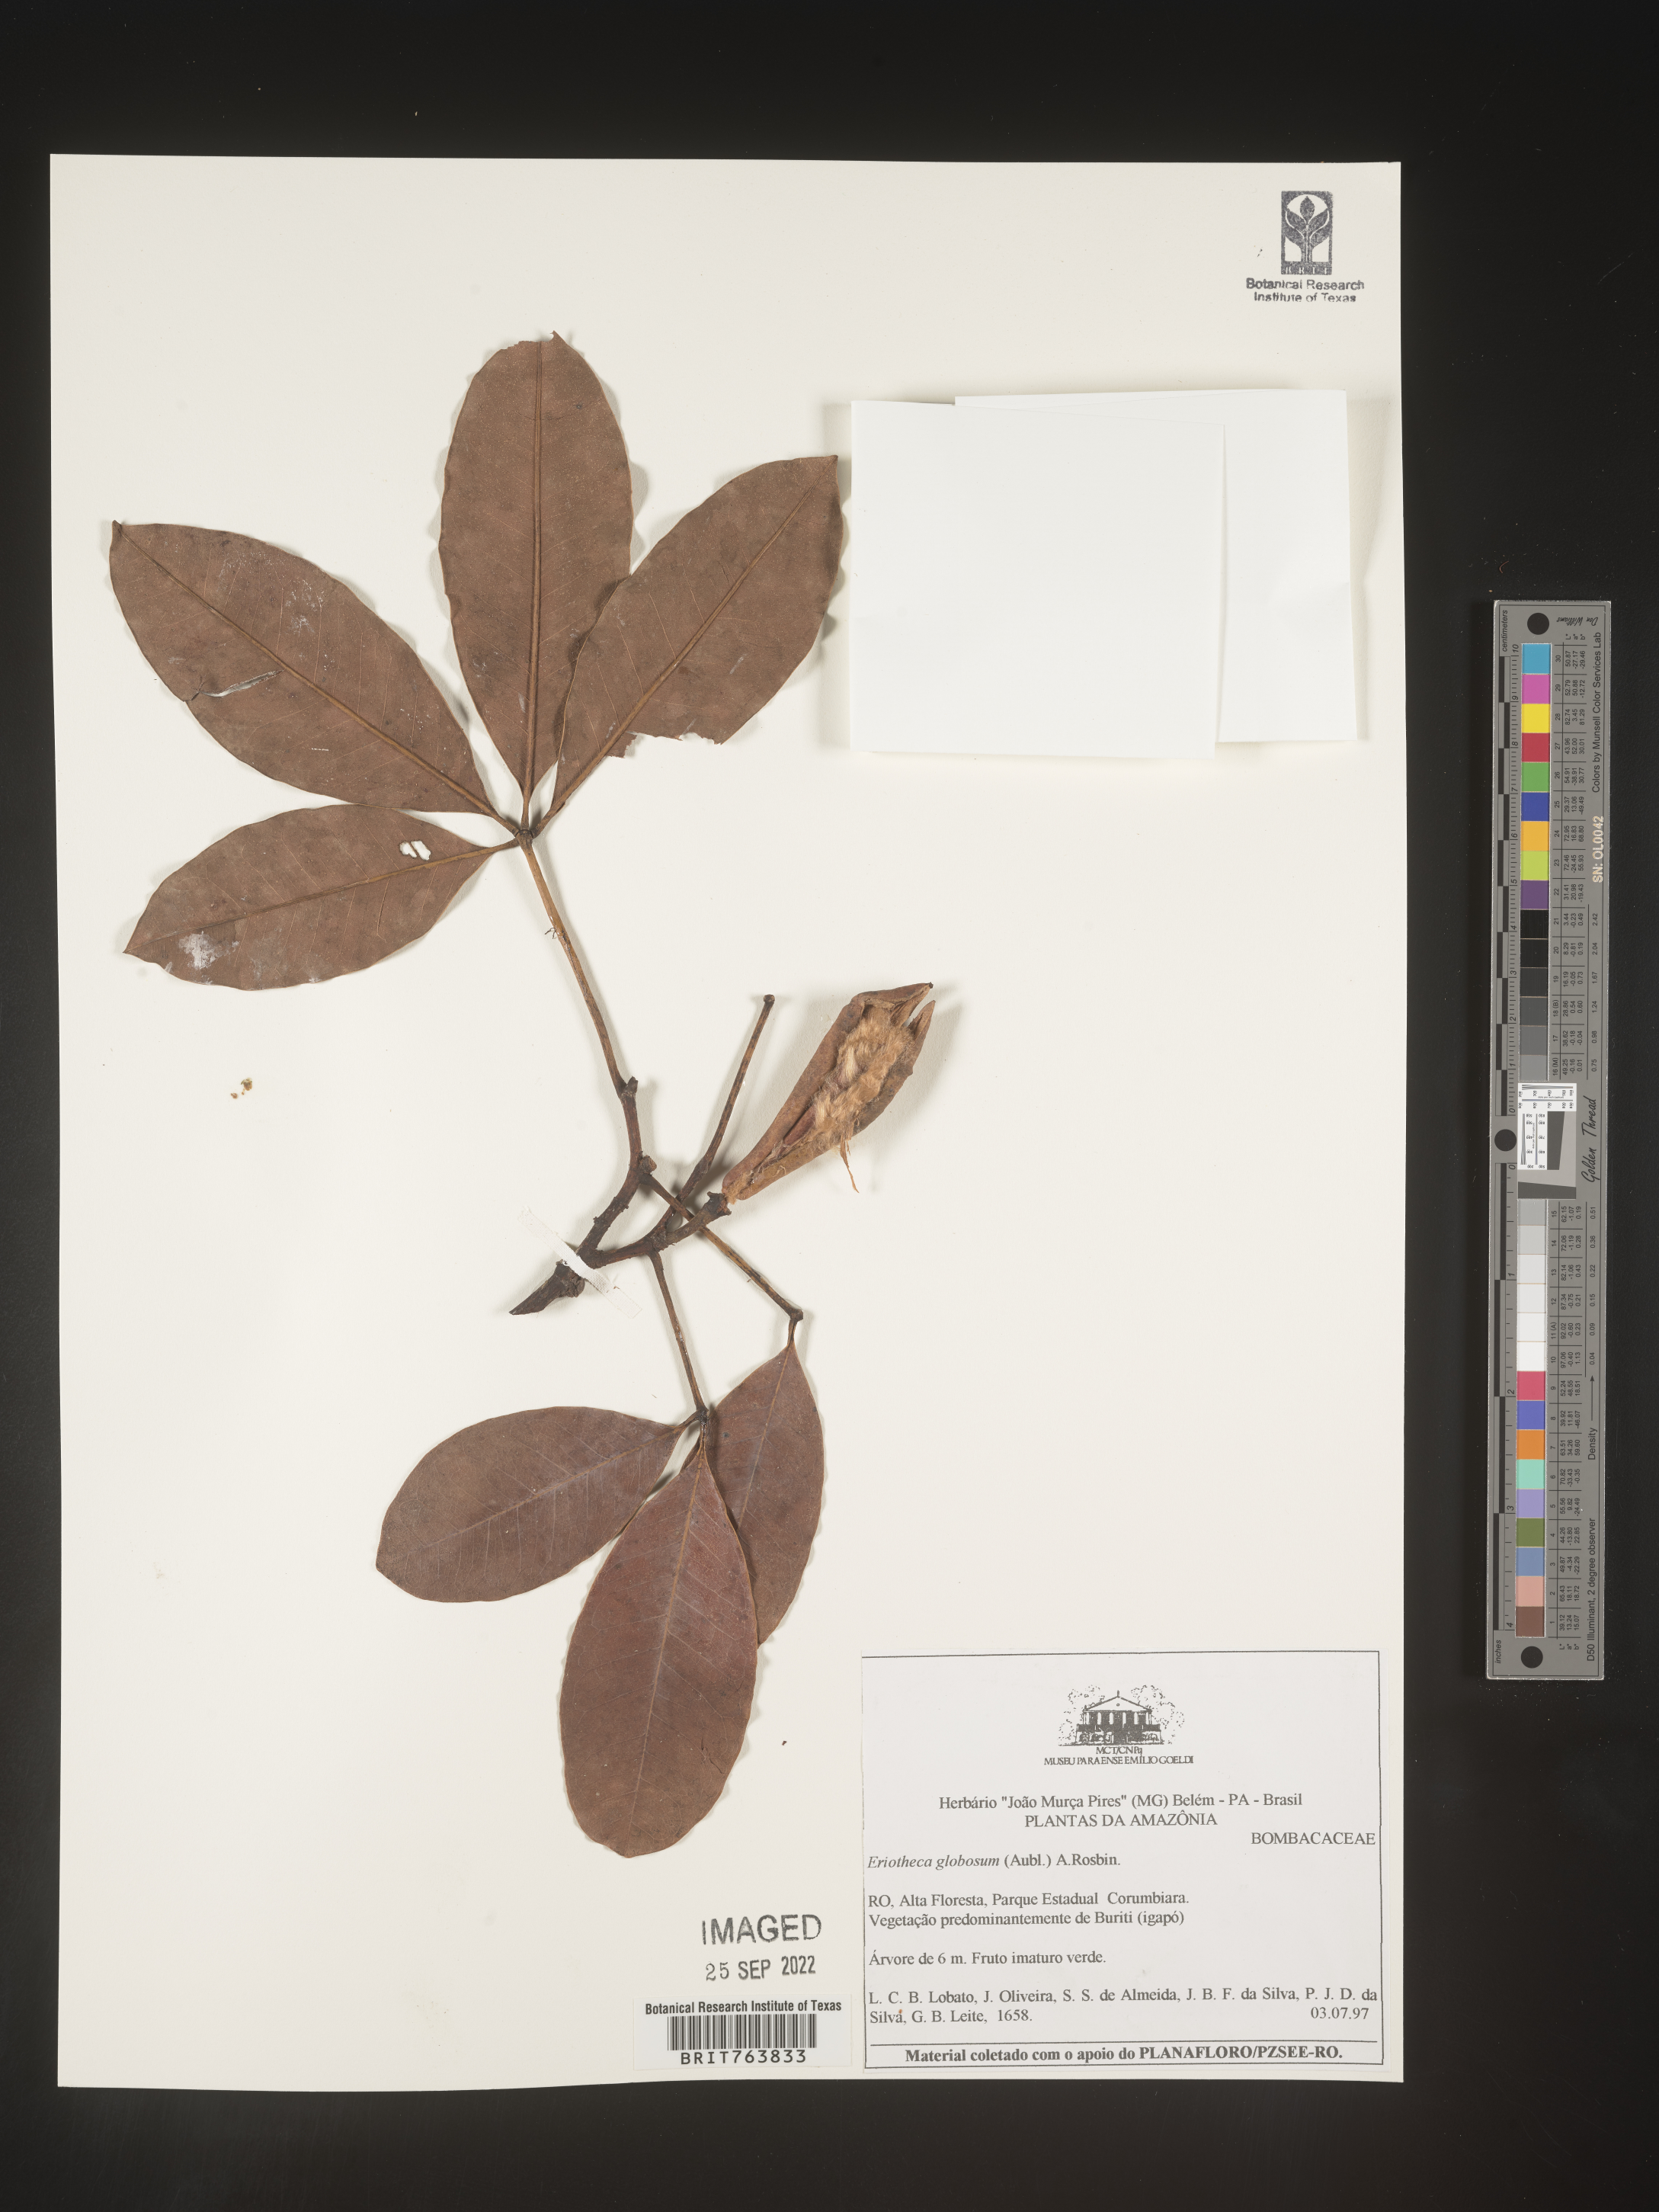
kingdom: Plantae
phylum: Tracheophyta
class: Magnoliopsida
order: Malvales
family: Malvaceae
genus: Eriotheca
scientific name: Eriotheca
